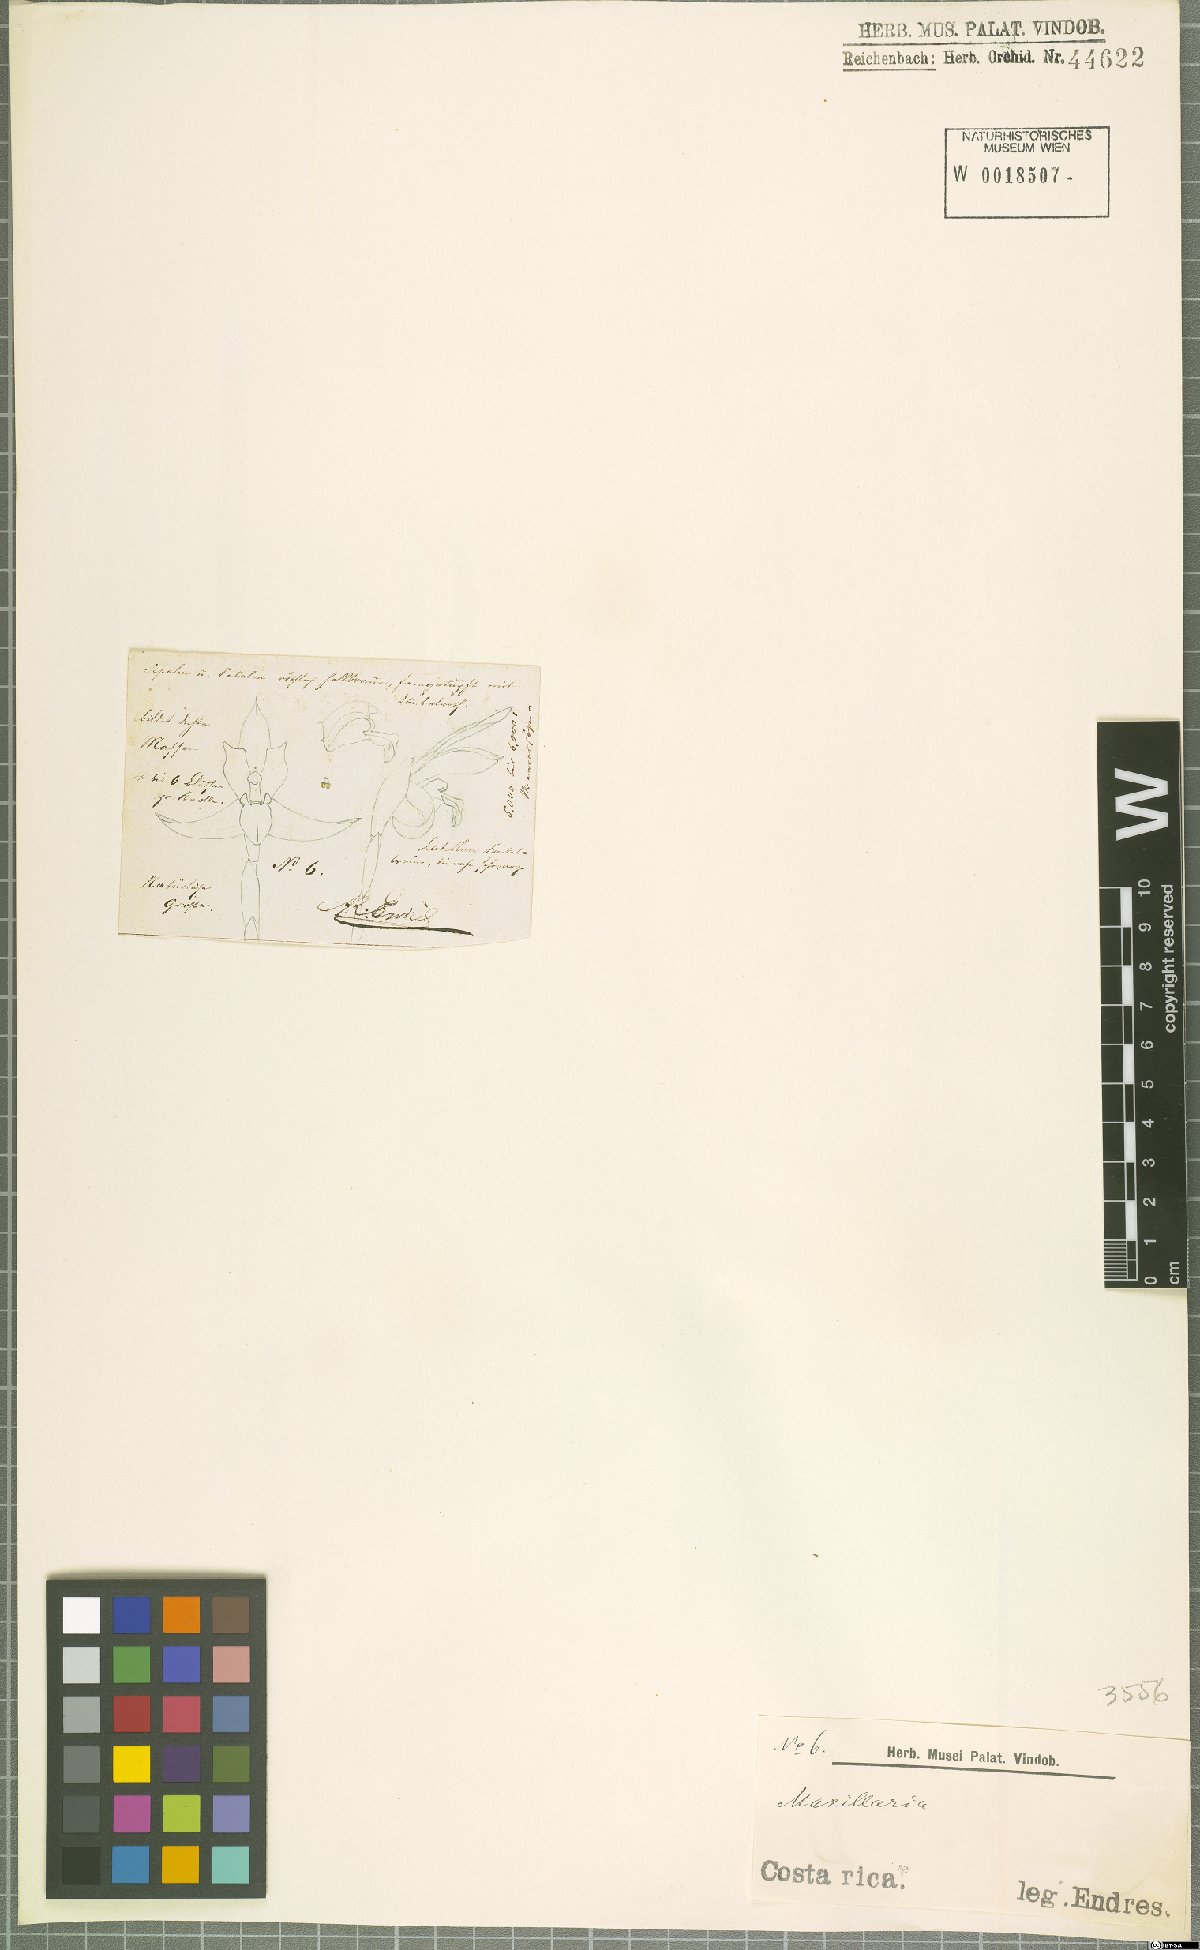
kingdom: Plantae
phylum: Tracheophyta
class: Liliopsida
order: Asparagales
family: Orchidaceae
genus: Maxillaria
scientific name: Maxillaria
